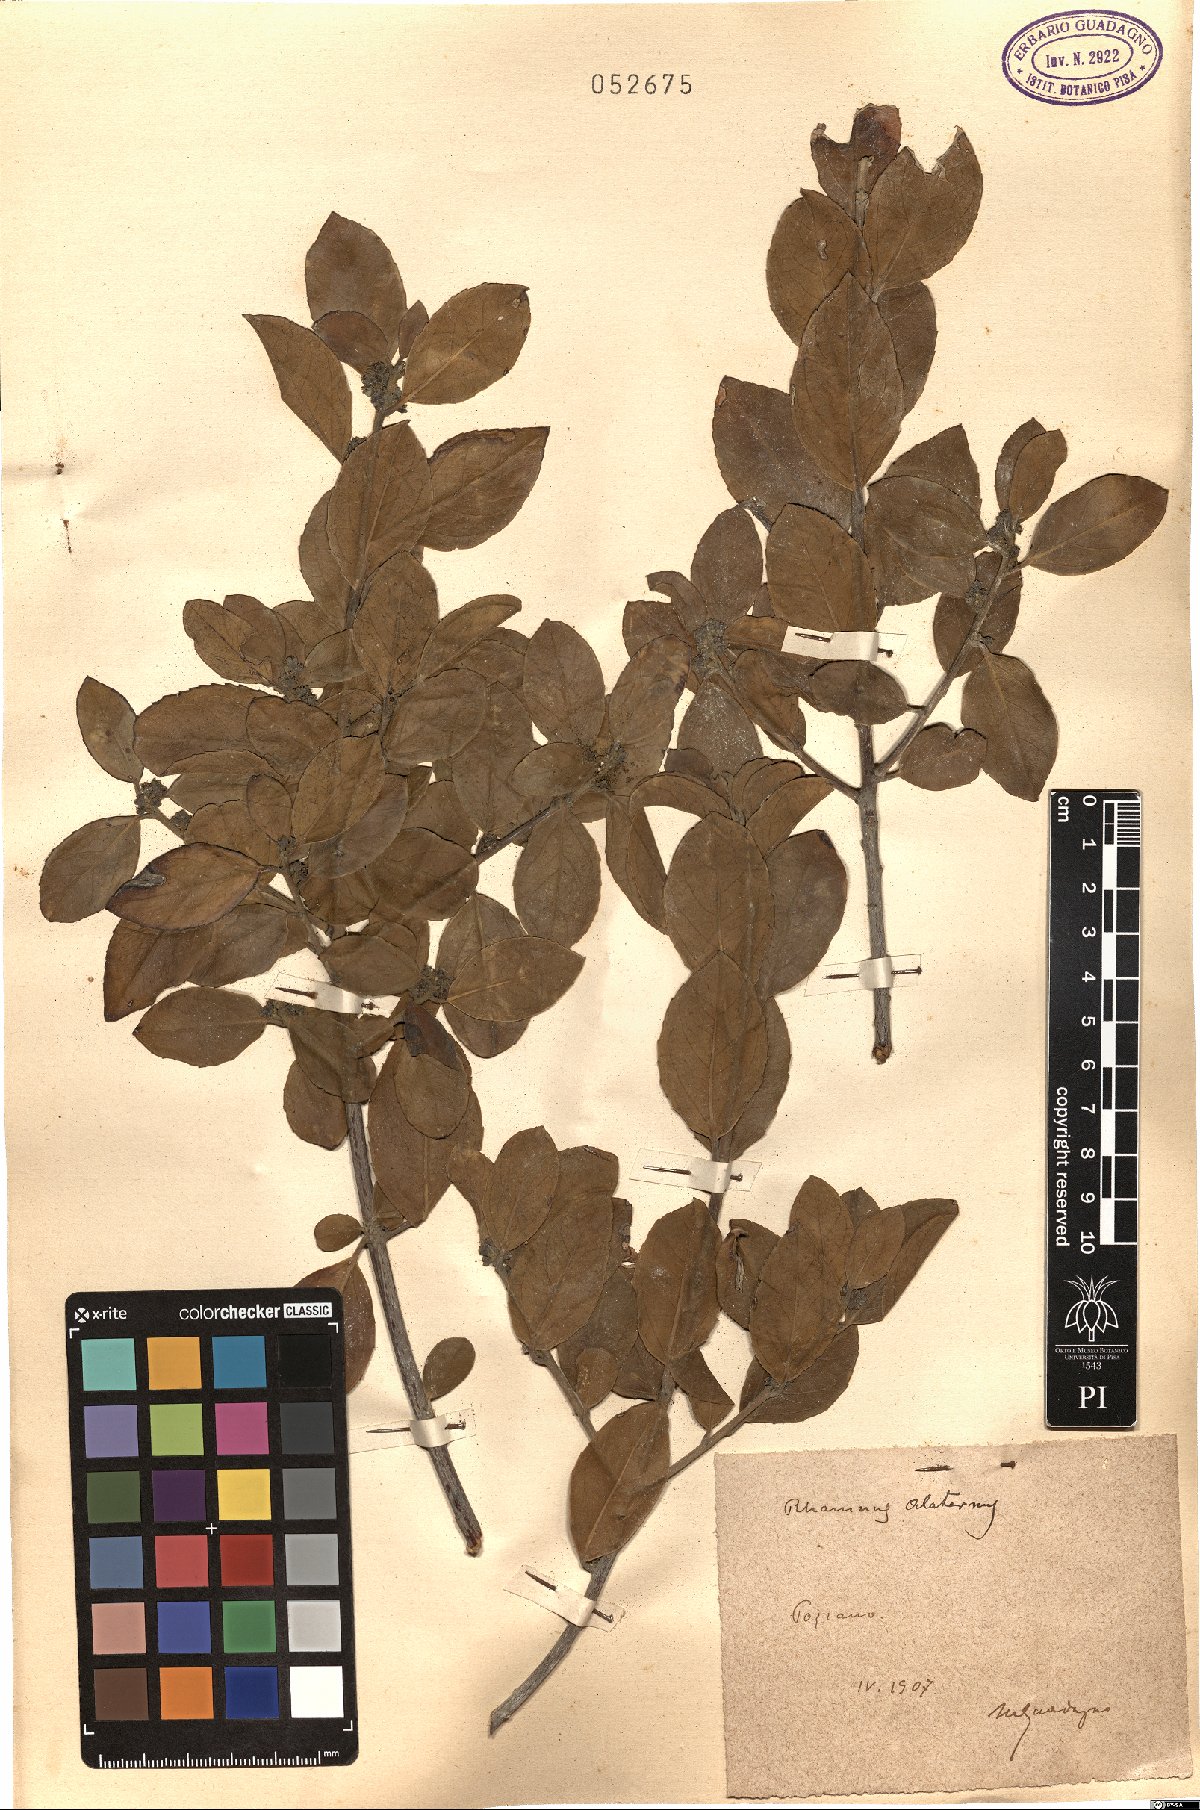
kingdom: Plantae
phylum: Tracheophyta
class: Magnoliopsida
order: Rosales
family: Rhamnaceae
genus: Rhamnus
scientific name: Rhamnus alaternus
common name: Mediterranean buckthorn
